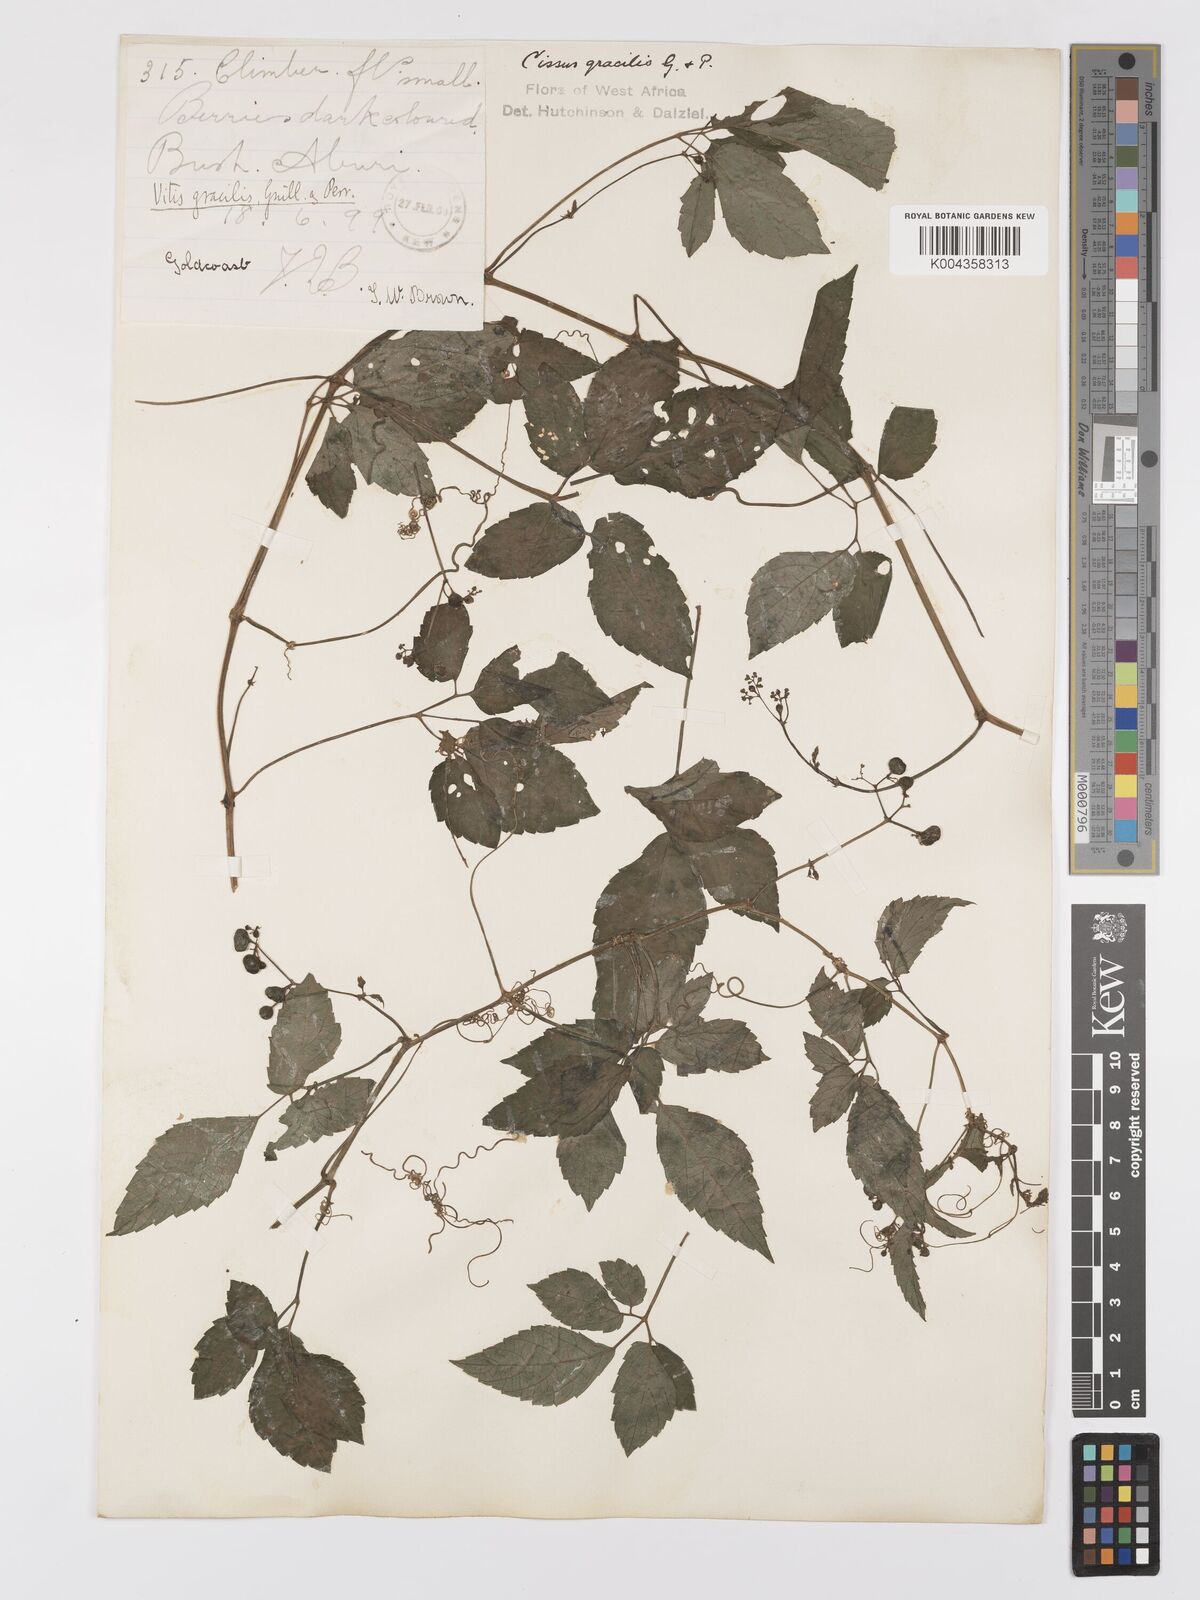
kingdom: Plantae
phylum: Tracheophyta
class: Magnoliopsida
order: Vitales
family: Vitaceae
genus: Afrocayratia
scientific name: Afrocayratia gracilis
